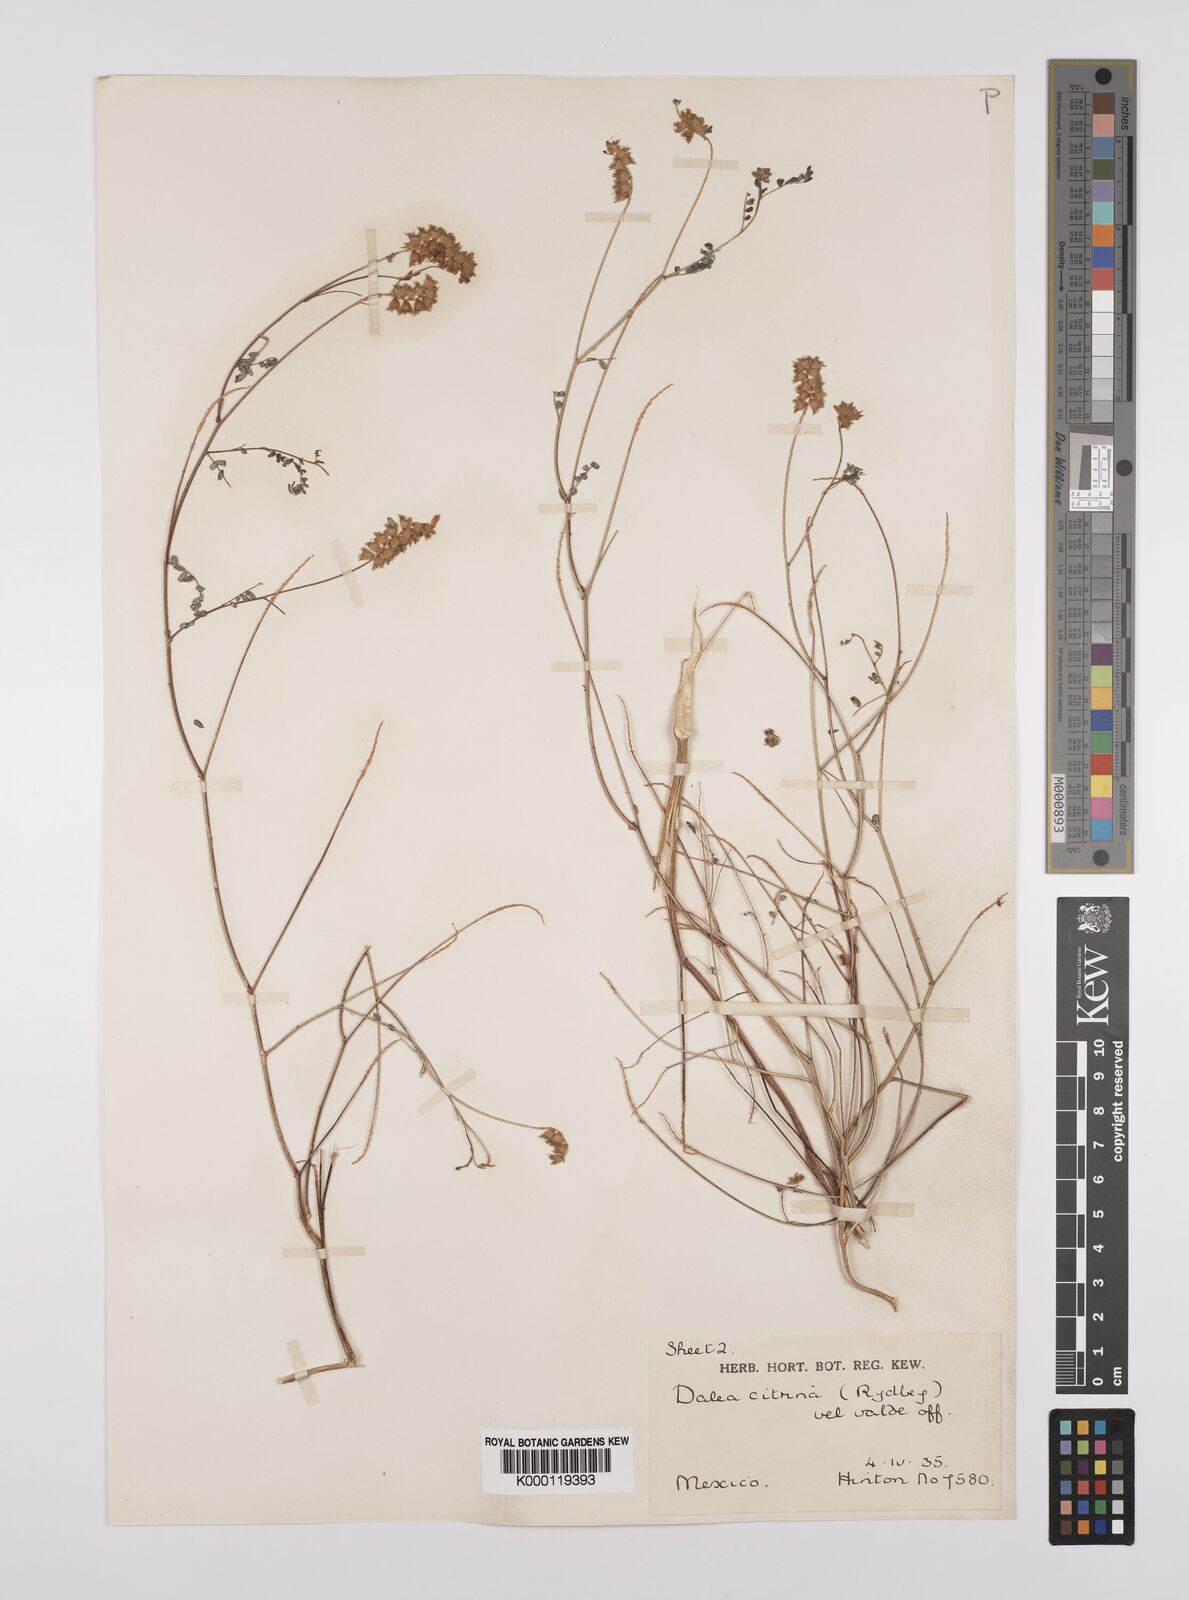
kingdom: Plantae
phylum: Tracheophyta
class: Magnoliopsida
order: Fabales
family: Fabaceae
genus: Dalea
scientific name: Dalea foliolosa
